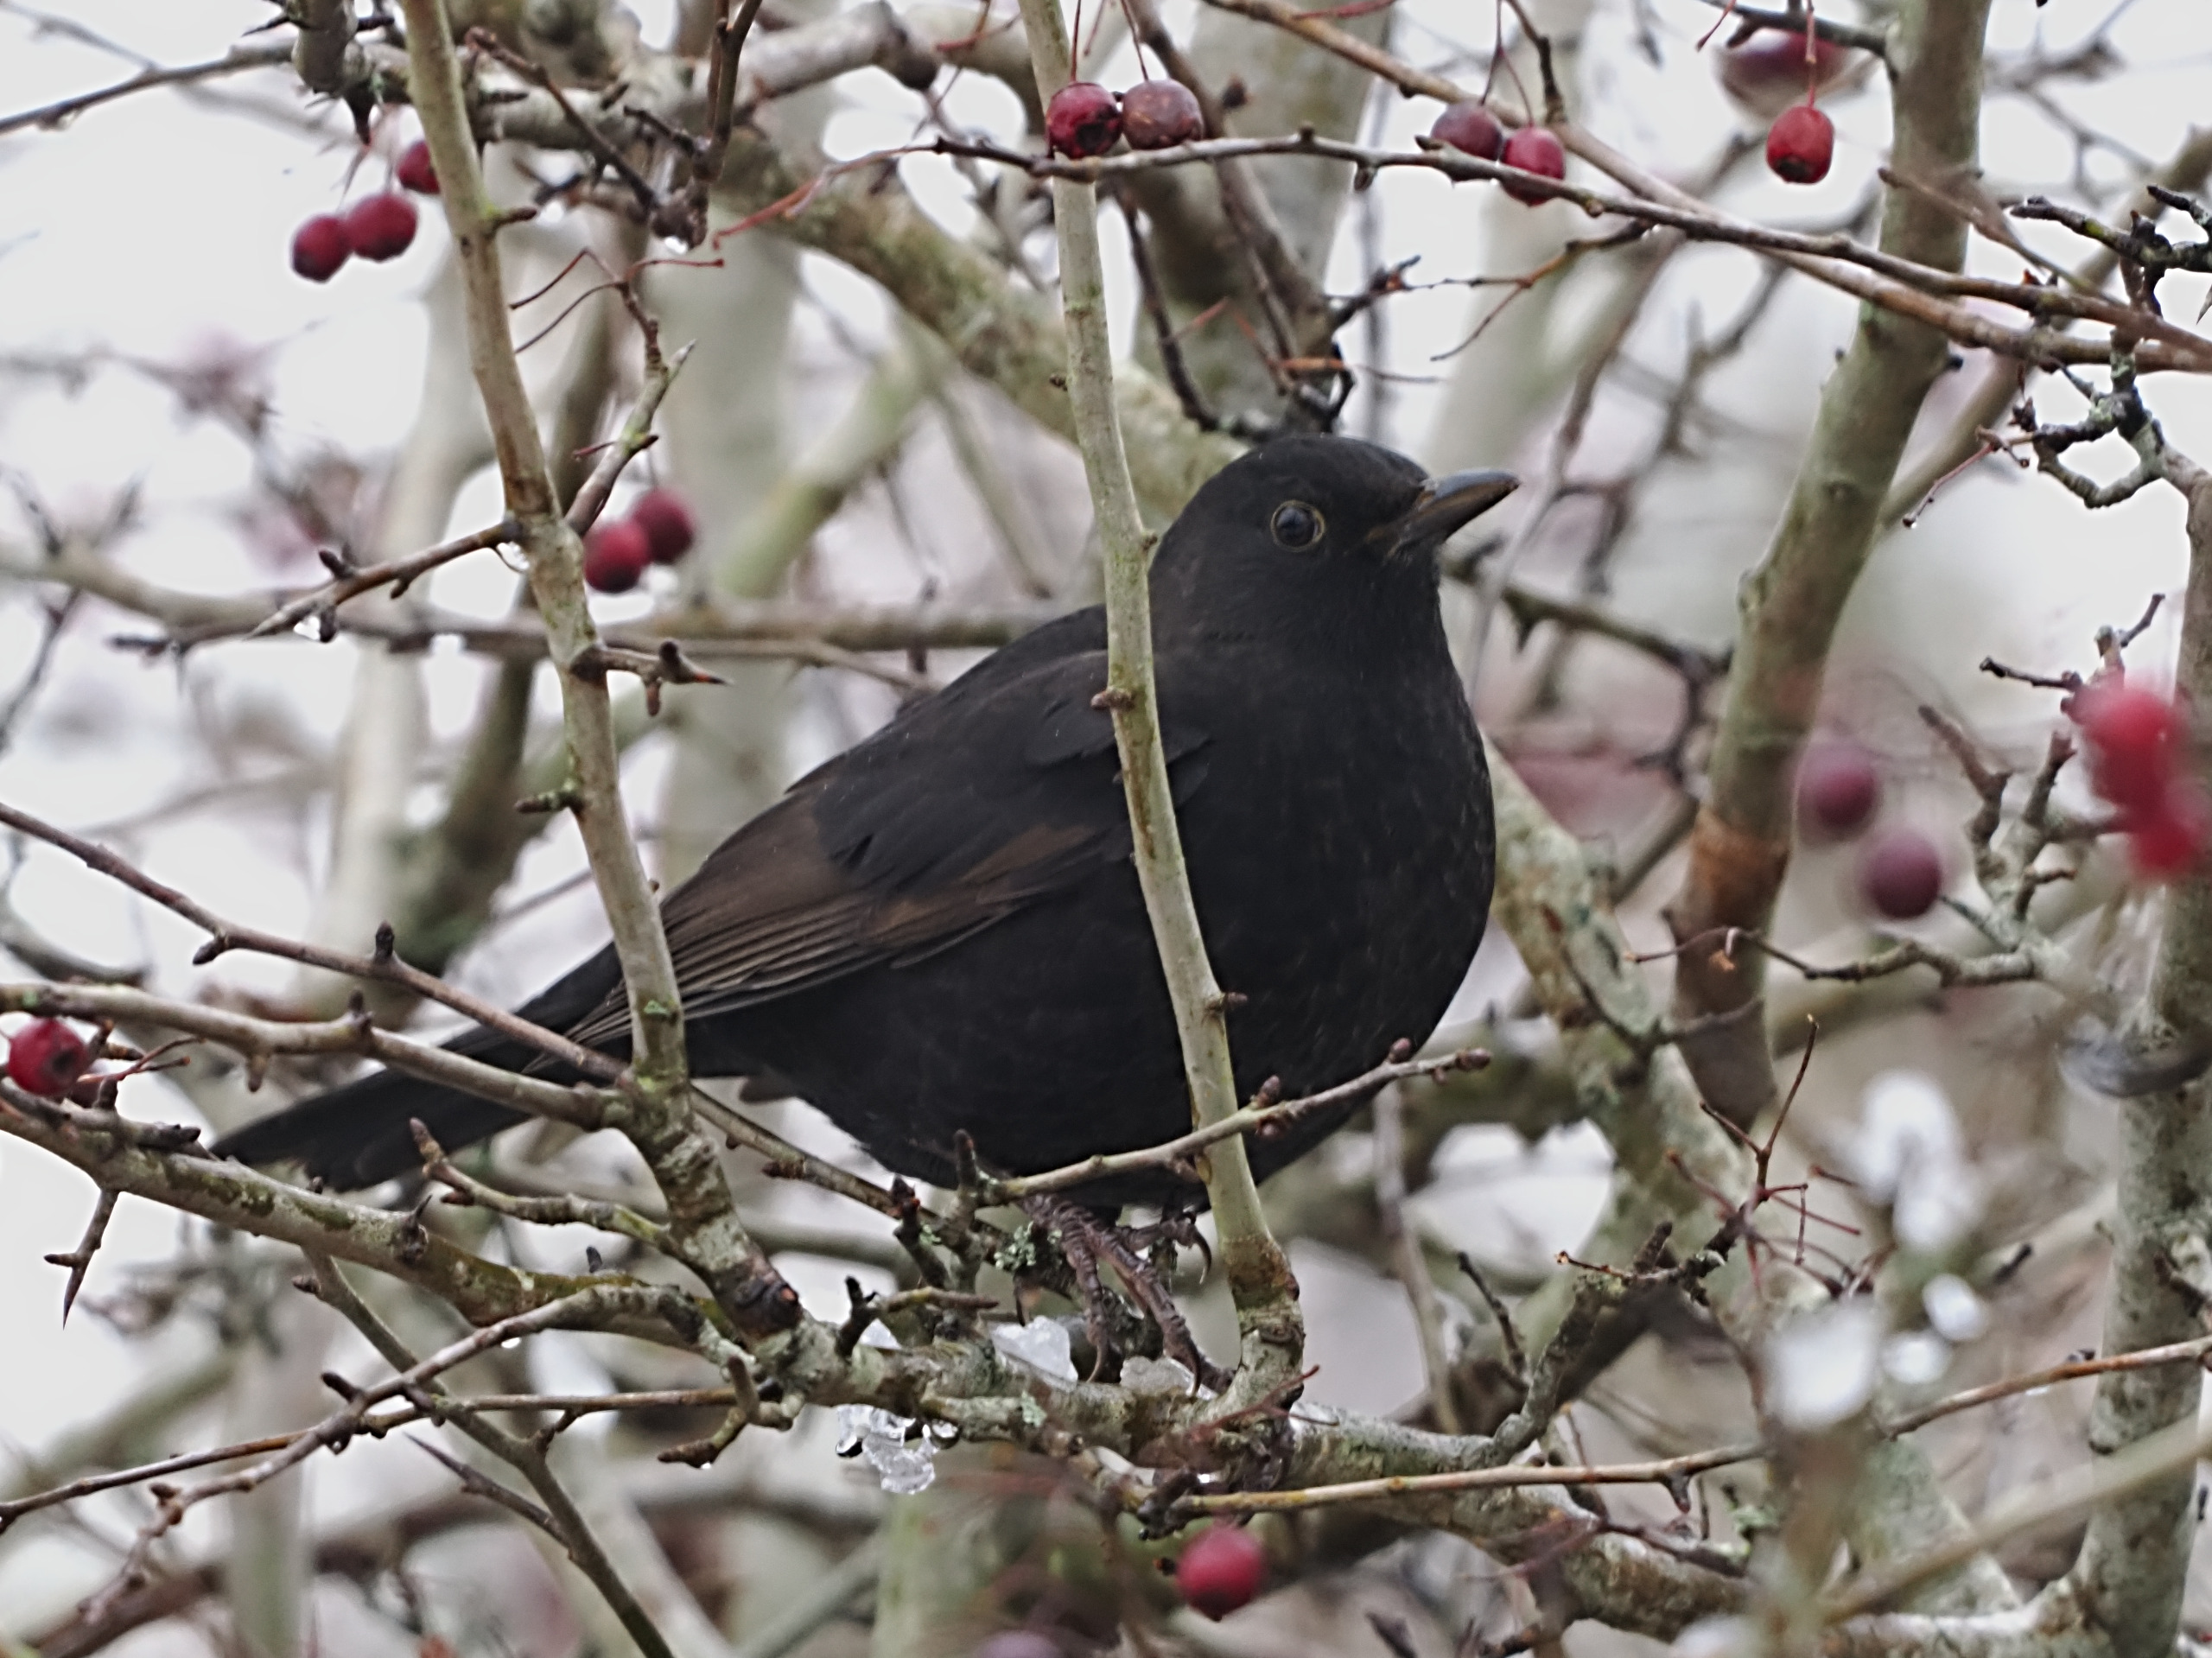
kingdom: Animalia
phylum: Chordata
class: Aves
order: Passeriformes
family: Turdidae
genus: Turdus
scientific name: Turdus merula
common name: Solsort
